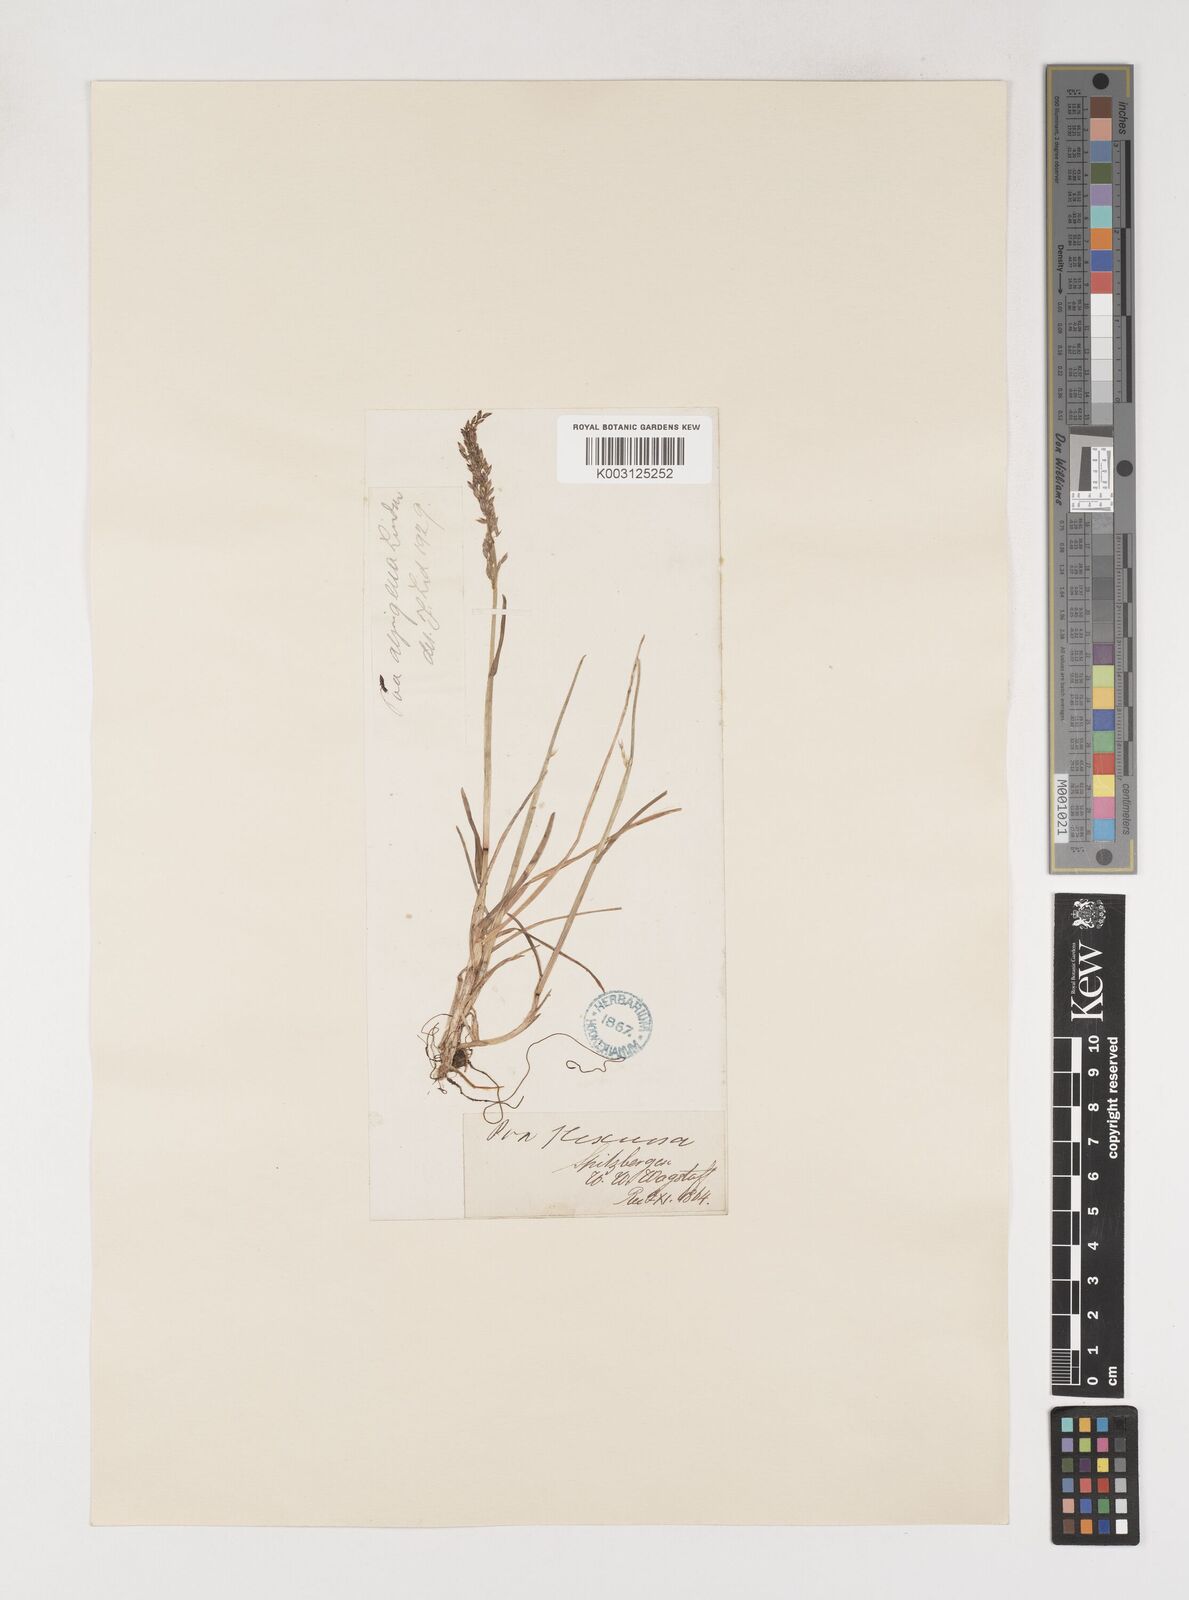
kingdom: Plantae
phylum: Tracheophyta
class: Liliopsida
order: Poales
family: Poaceae
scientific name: Poaceae
